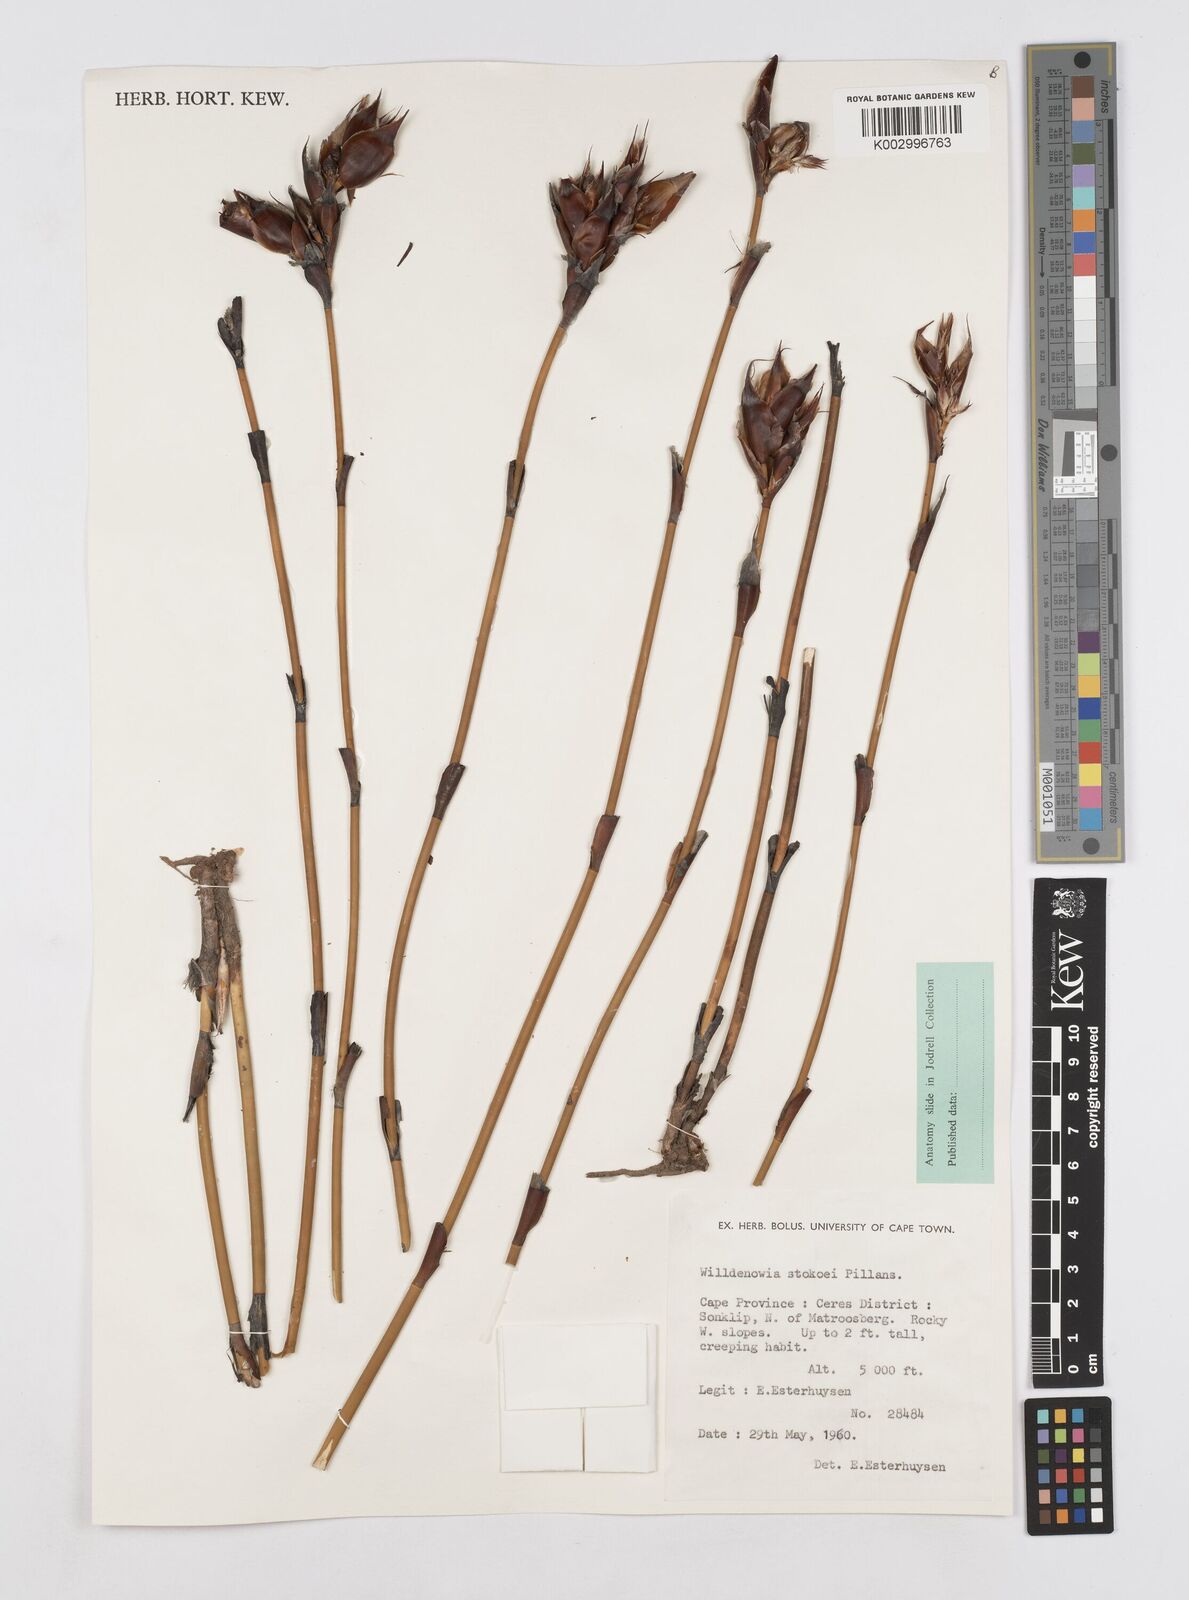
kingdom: Plantae
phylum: Tracheophyta
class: Liliopsida
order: Poales
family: Restionaceae
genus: Willdenowia
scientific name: Willdenowia stokoei
